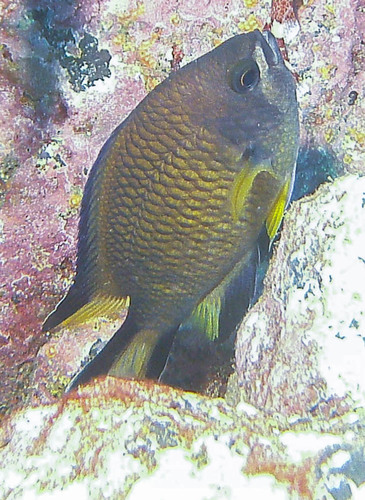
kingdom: Animalia
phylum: Chordata
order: Perciformes
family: Pomacentridae
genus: Chromis
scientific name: Chromis limbata
